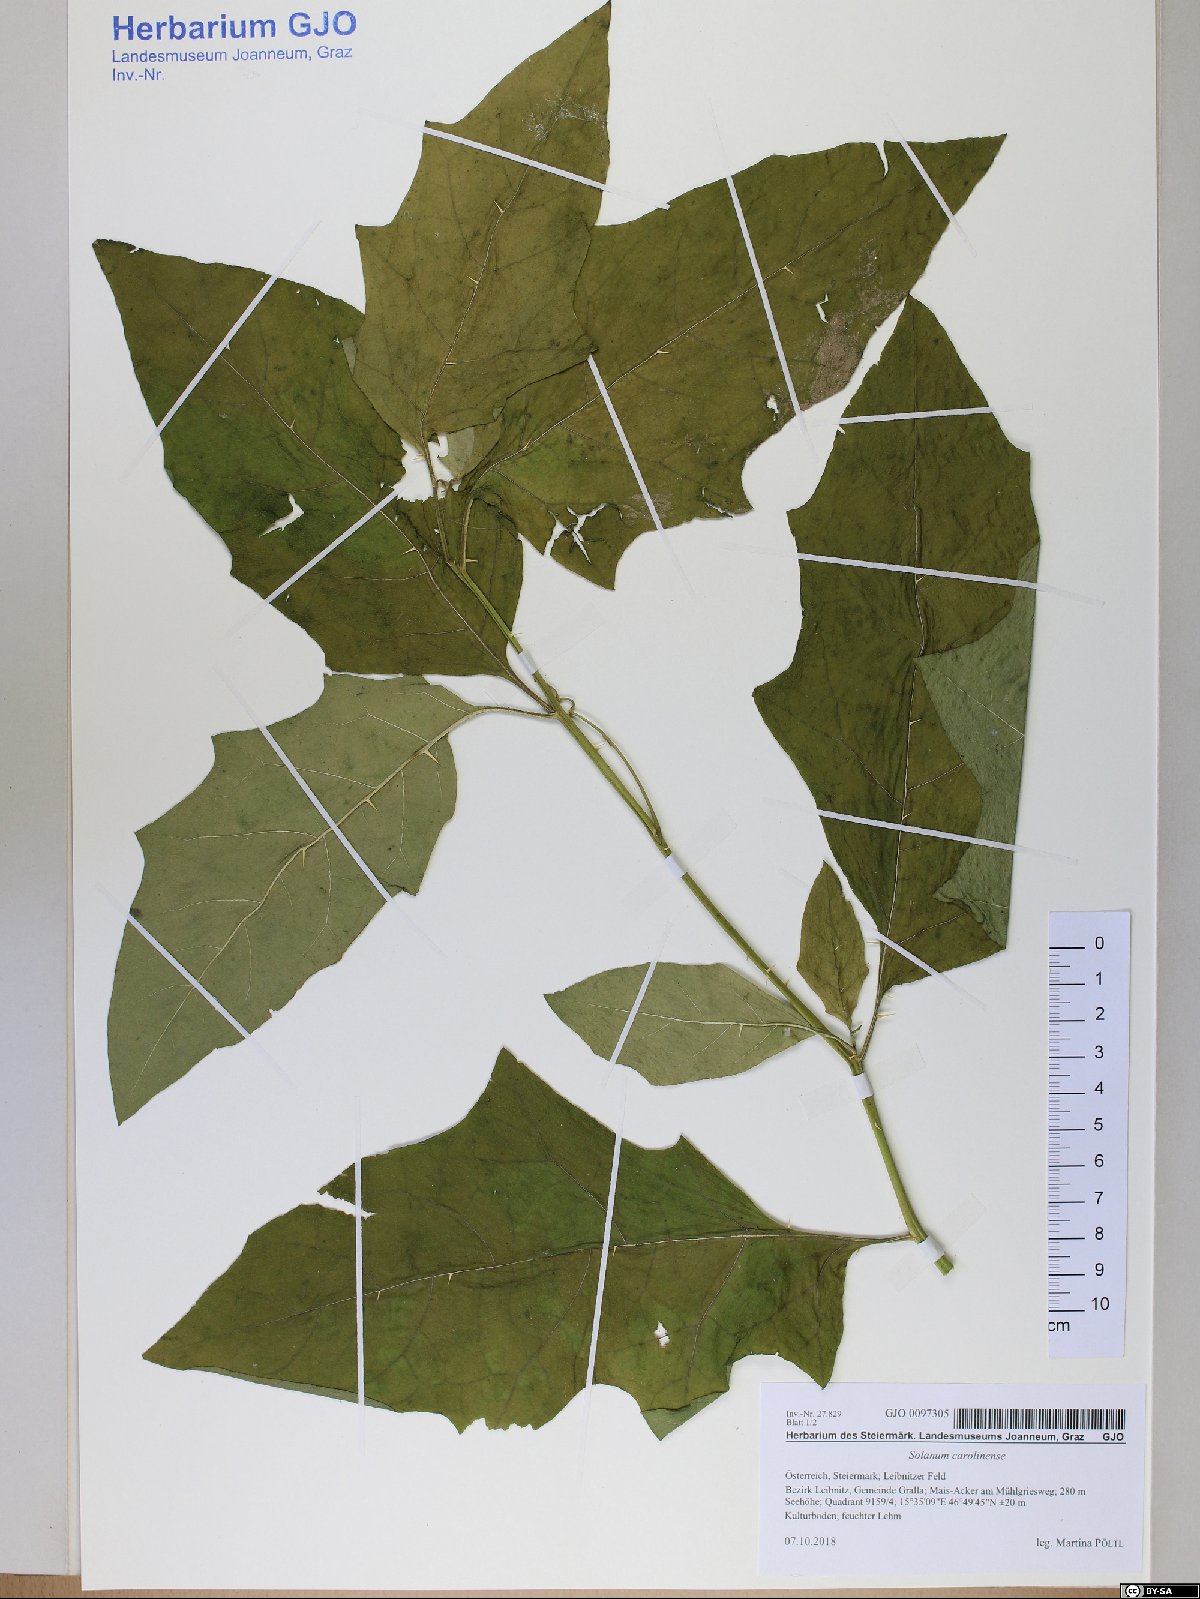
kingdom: Plantae
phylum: Tracheophyta
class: Magnoliopsida
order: Solanales
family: Solanaceae
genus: Solanum
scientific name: Solanum carolinense
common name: Horse-nettle
